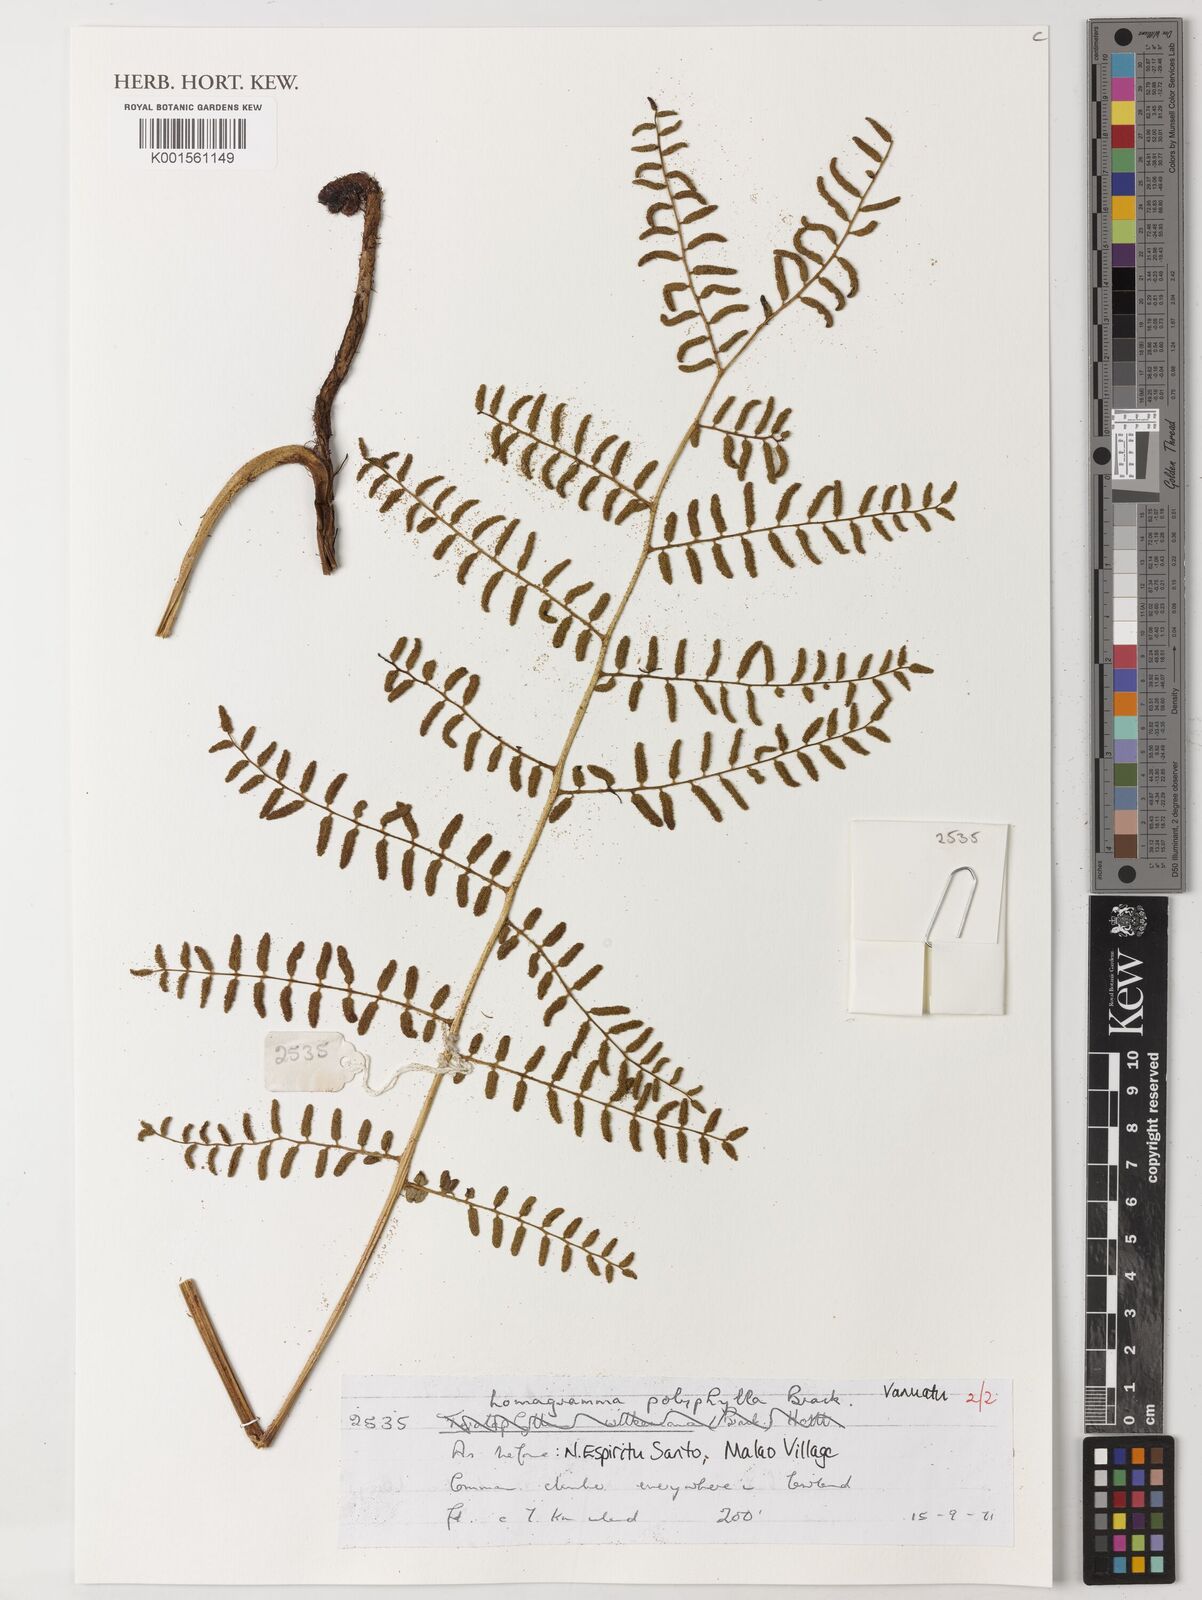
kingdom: Plantae
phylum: Tracheophyta
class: Polypodiopsida
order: Polypodiales
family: Dryopteridaceae
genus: Lomagramma
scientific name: Lomagramma polyphylla
